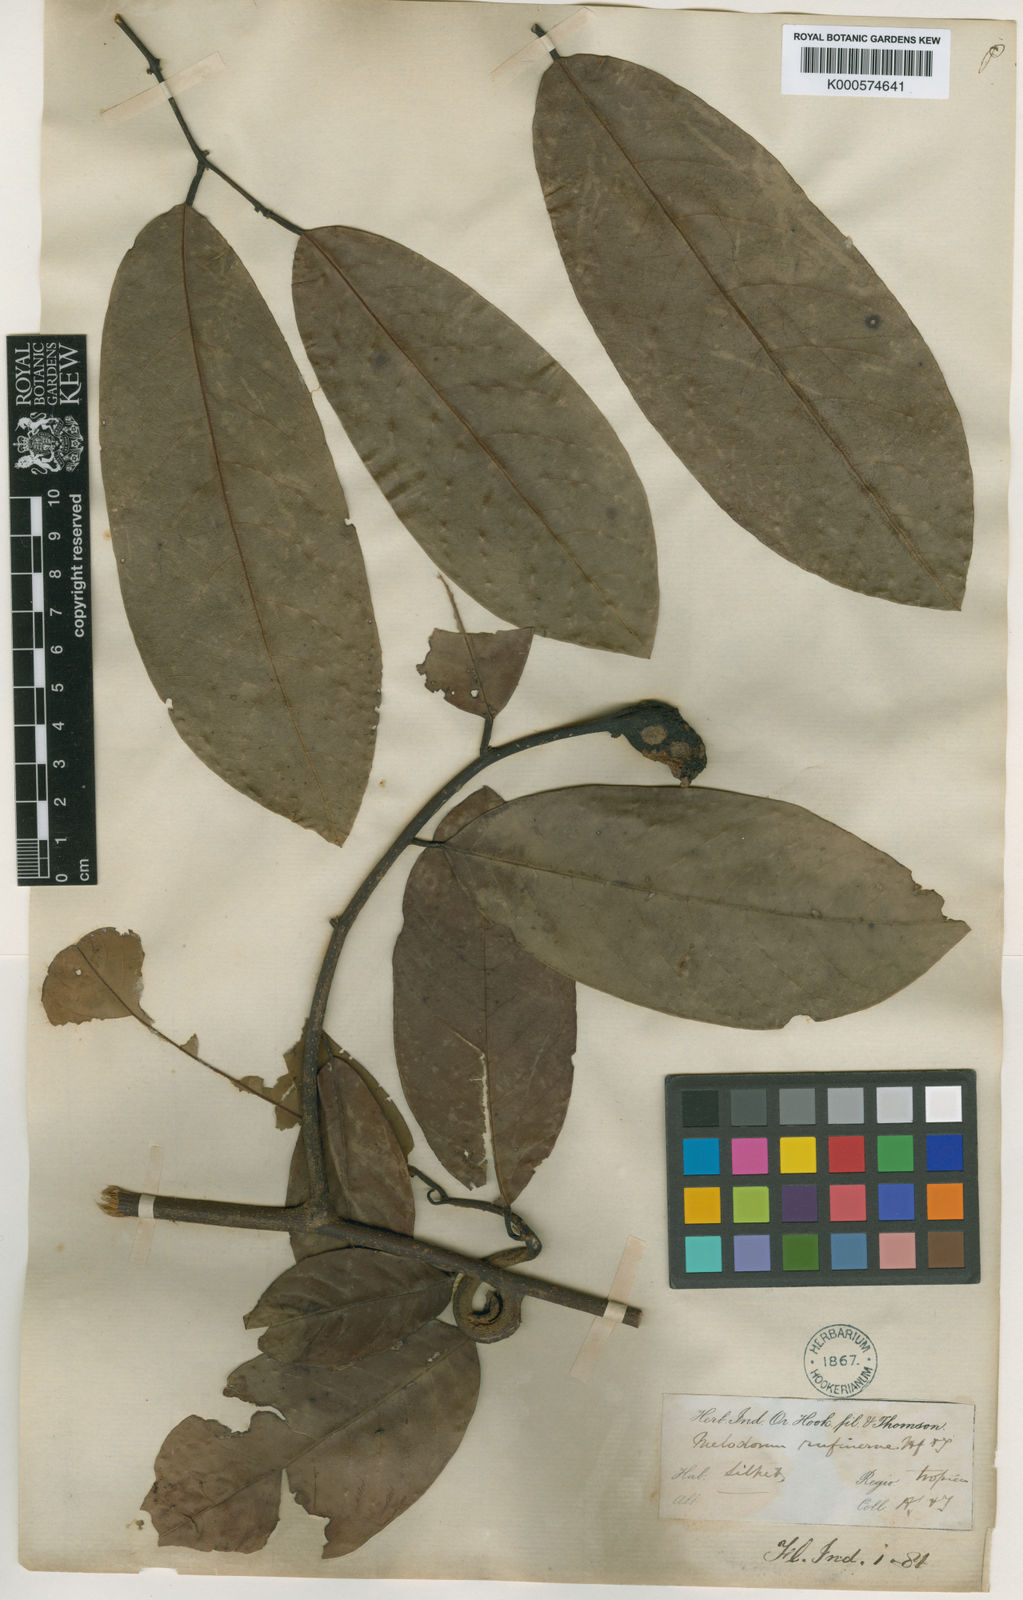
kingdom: Plantae
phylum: Tracheophyta
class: Magnoliopsida
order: Magnoliales
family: Annonaceae
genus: Fissistigma
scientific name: Fissistigma rufinerve
